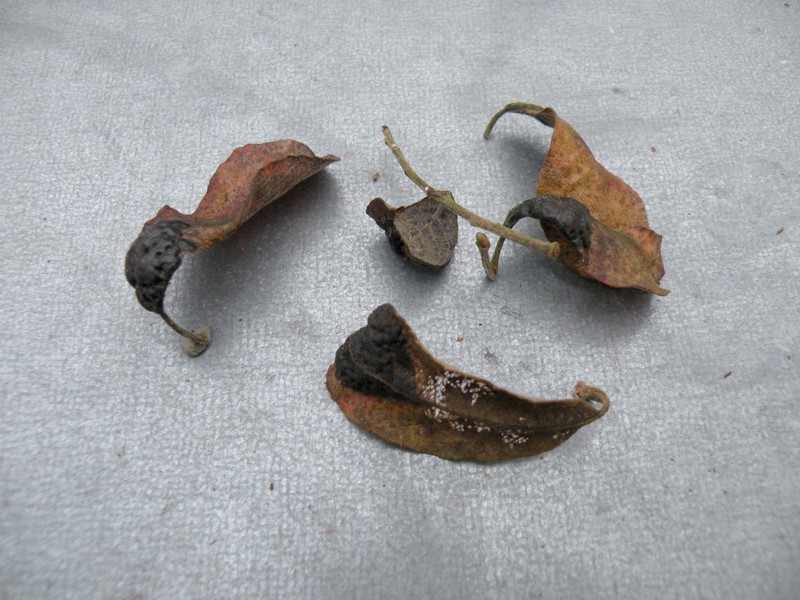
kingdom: Fungi
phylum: Ascomycota
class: Leotiomycetes
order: Rhytismatales
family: Rhytismataceae
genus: Rhytisma
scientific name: Rhytisma salicinum
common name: pile-rynkeplet
